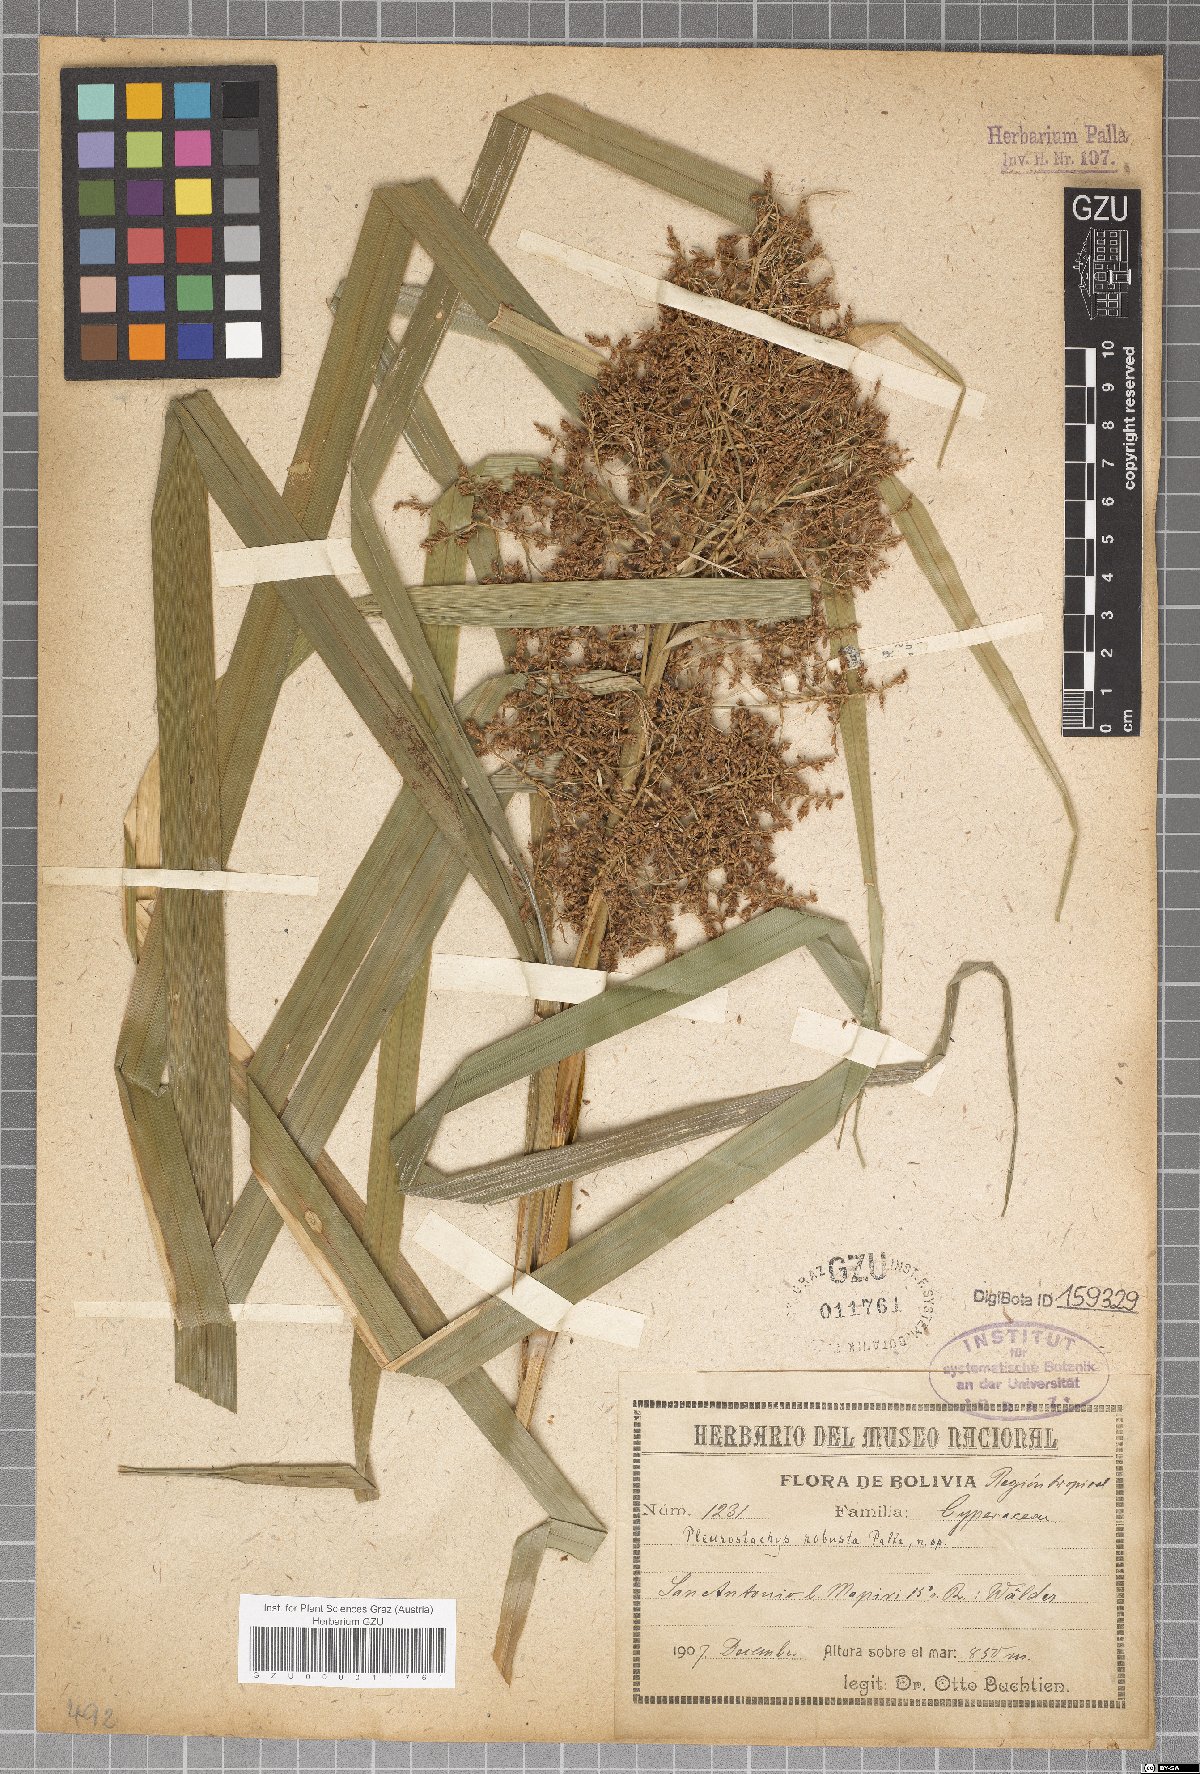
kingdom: Plantae
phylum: Tracheophyta
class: Liliopsida
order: Poales
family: Cyperaceae
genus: Rhynchospora
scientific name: Rhynchospora Pleurostachys robusta
